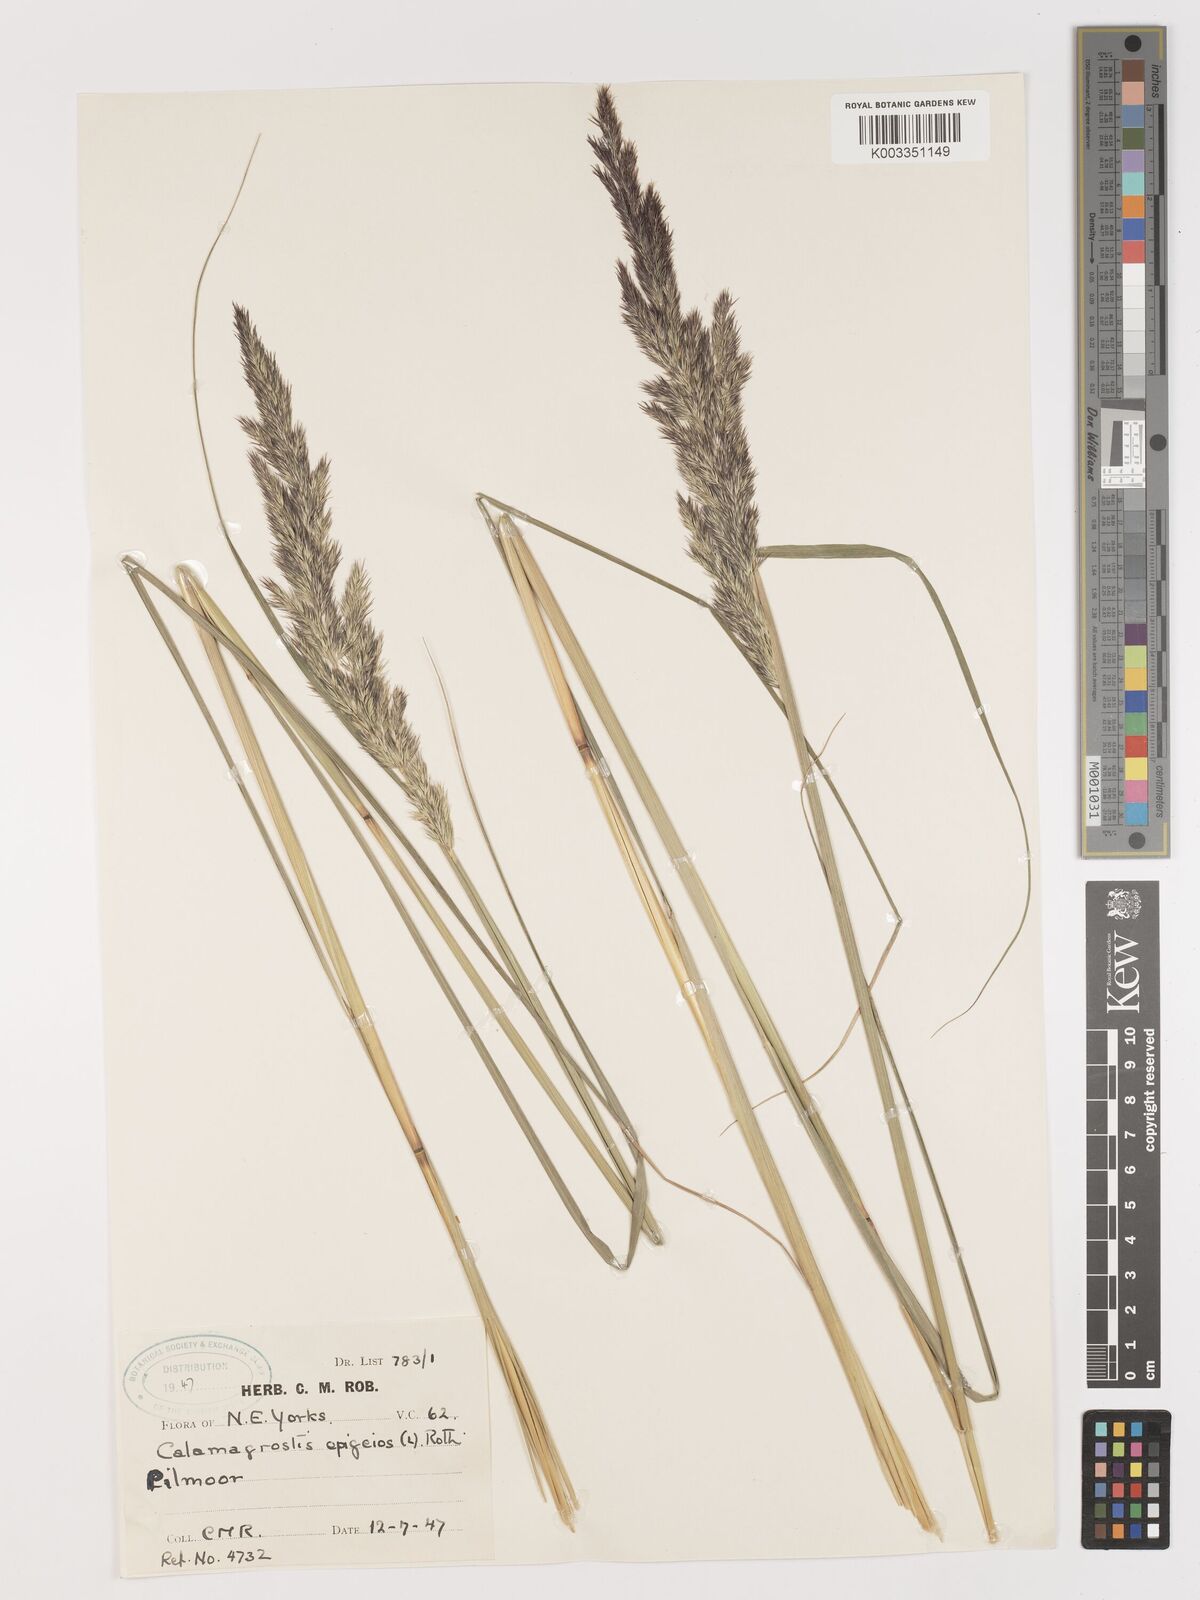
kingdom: Plantae
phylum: Tracheophyta
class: Liliopsida
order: Poales
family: Poaceae
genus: Calamagrostis
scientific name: Calamagrostis
